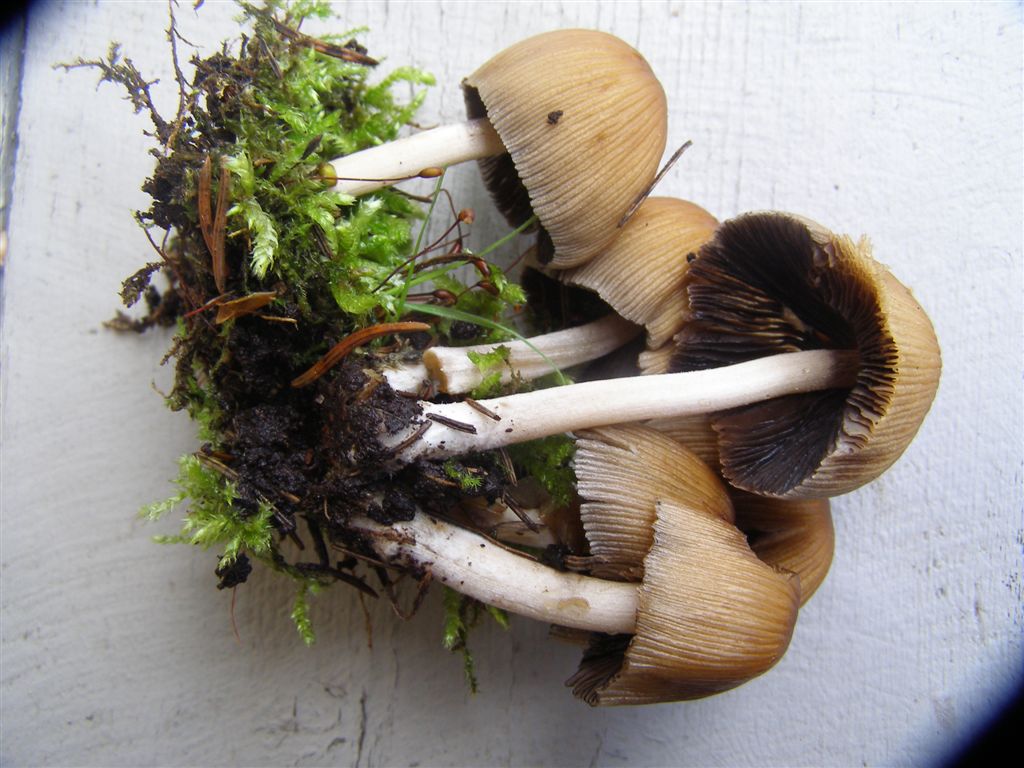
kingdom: Fungi
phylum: Basidiomycota
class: Agaricomycetes
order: Agaricales
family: Psathyrellaceae
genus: Coprinellus
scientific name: Coprinellus micaceus
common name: glimmer-blækhat
